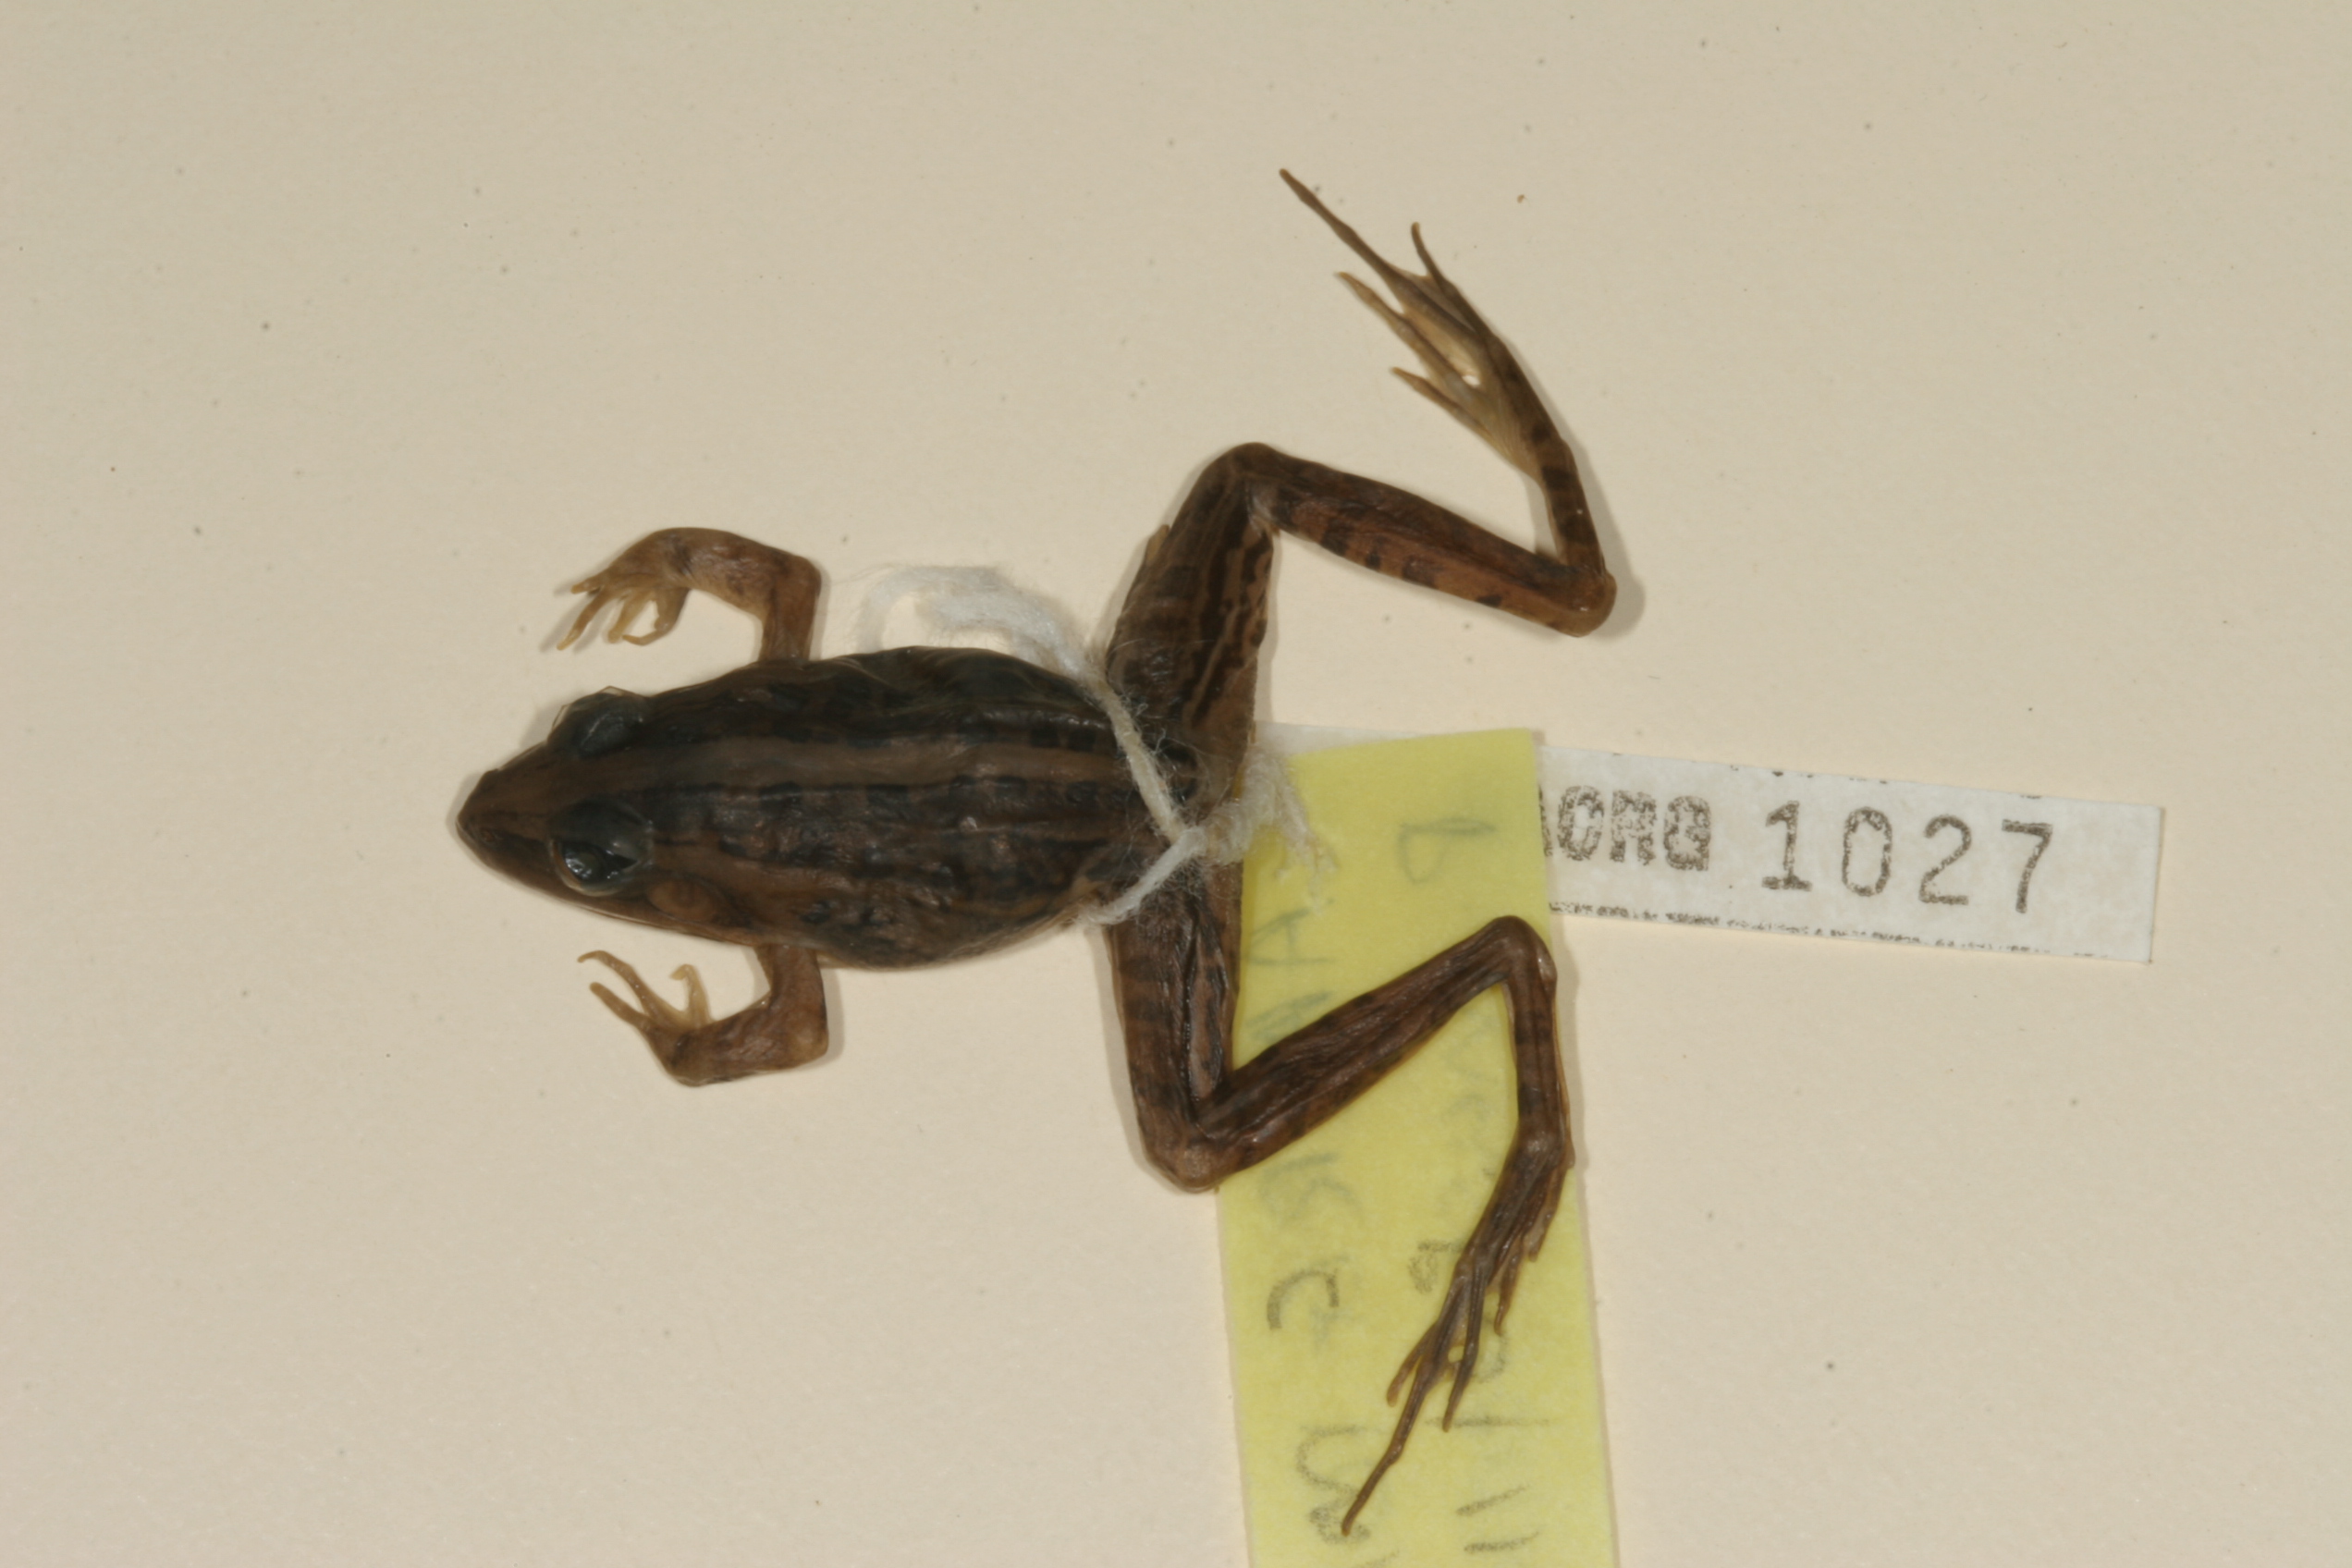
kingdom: Animalia
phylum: Chordata
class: Amphibia
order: Anura
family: Ptychadenidae
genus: Ptychadena
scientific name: Ptychadena mascareniensis
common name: Mascarene grass frog
